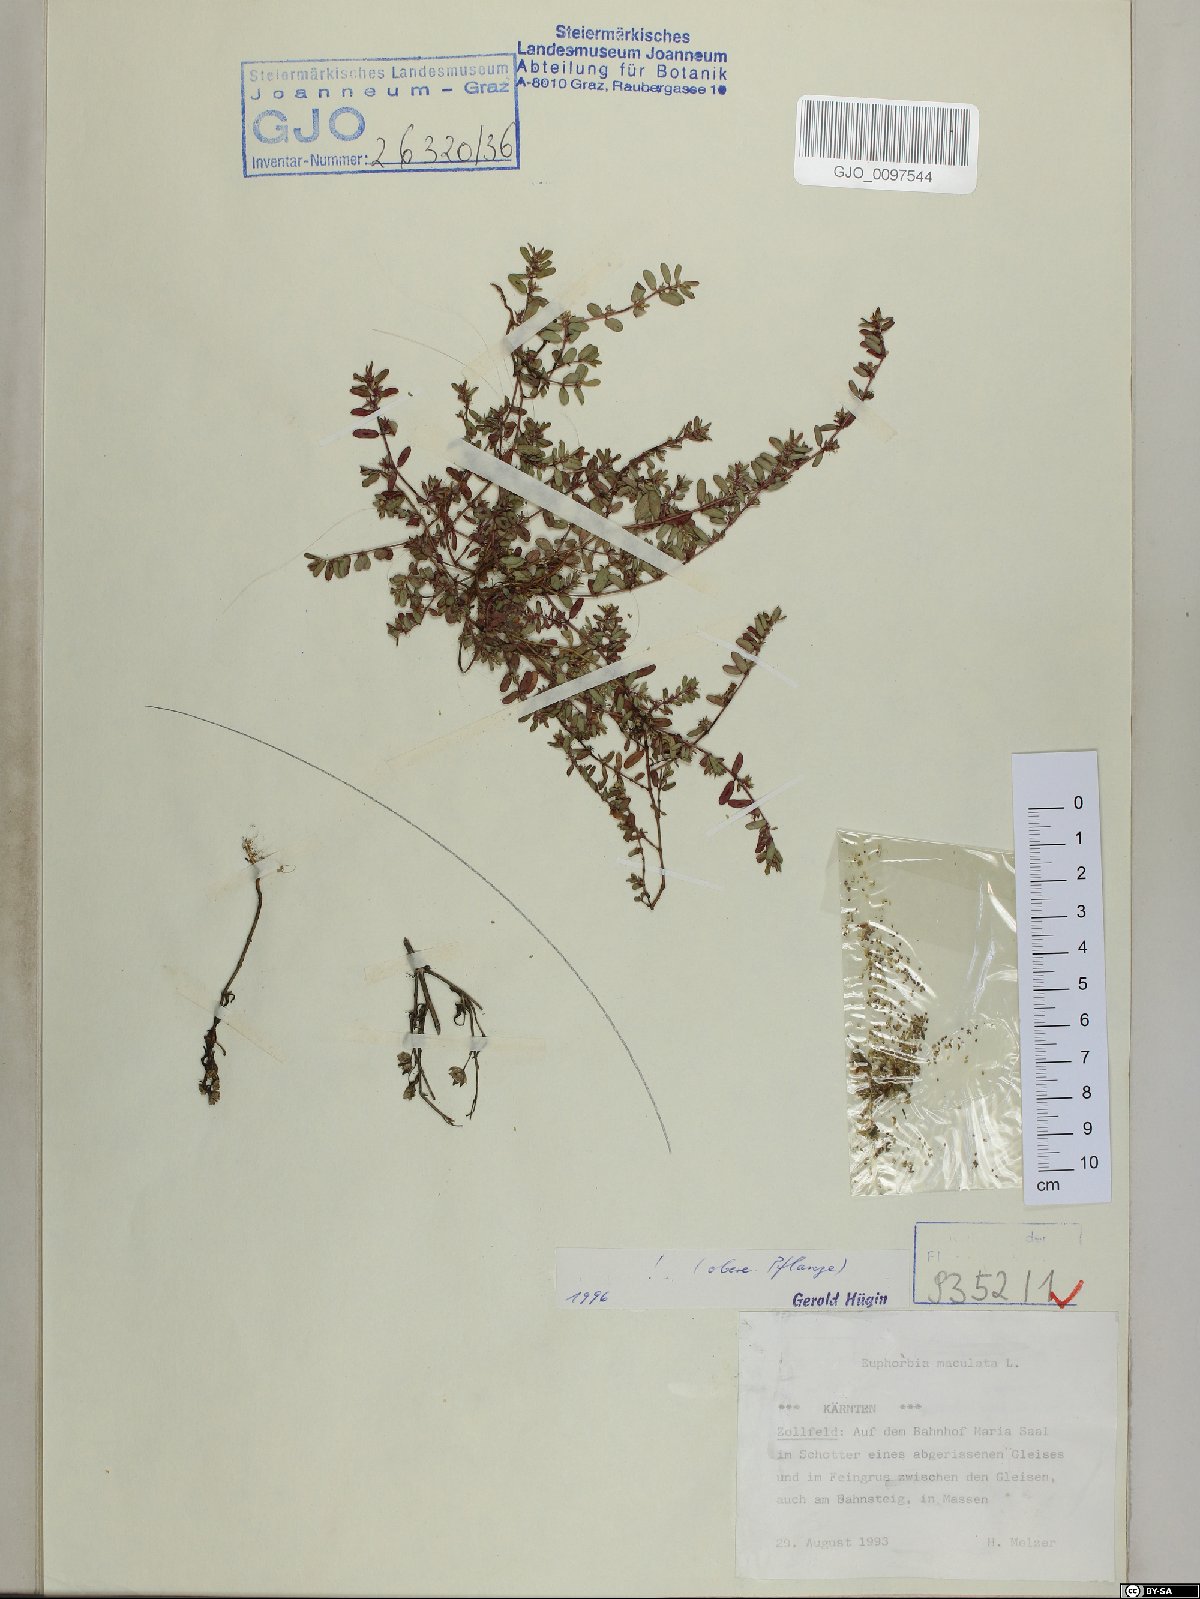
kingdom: Plantae
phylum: Tracheophyta
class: Magnoliopsida
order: Malpighiales
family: Euphorbiaceae
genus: Euphorbia
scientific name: Euphorbia maculata
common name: Spotted spurge
